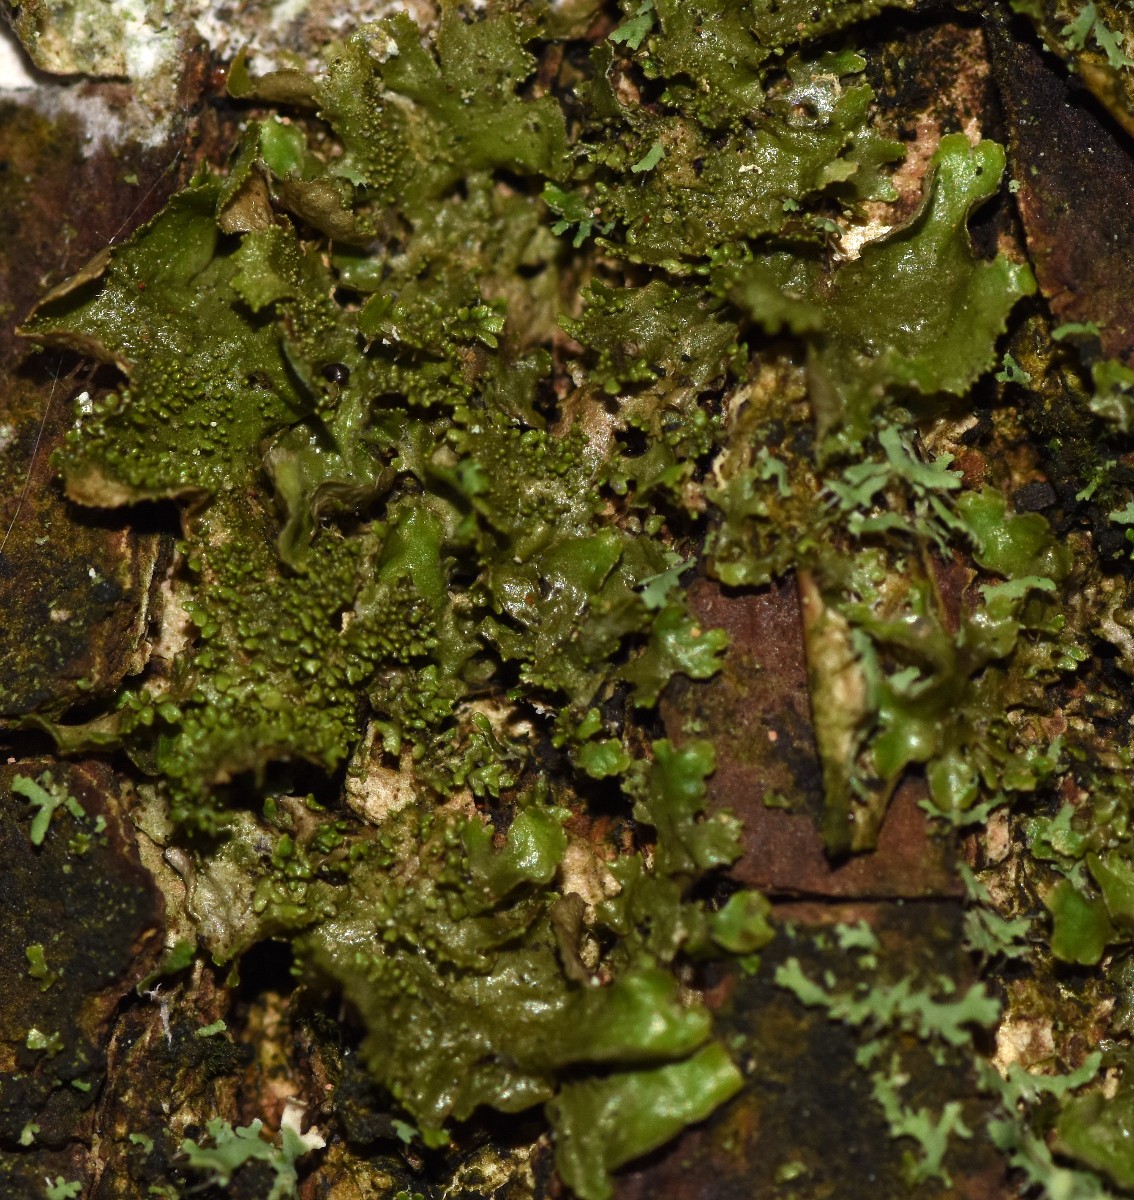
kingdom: Fungi
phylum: Ascomycota
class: Lecanoromycetes
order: Lecanorales
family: Parmeliaceae
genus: Melanohalea
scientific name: Melanohalea exasperatula
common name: kølle-skållav
